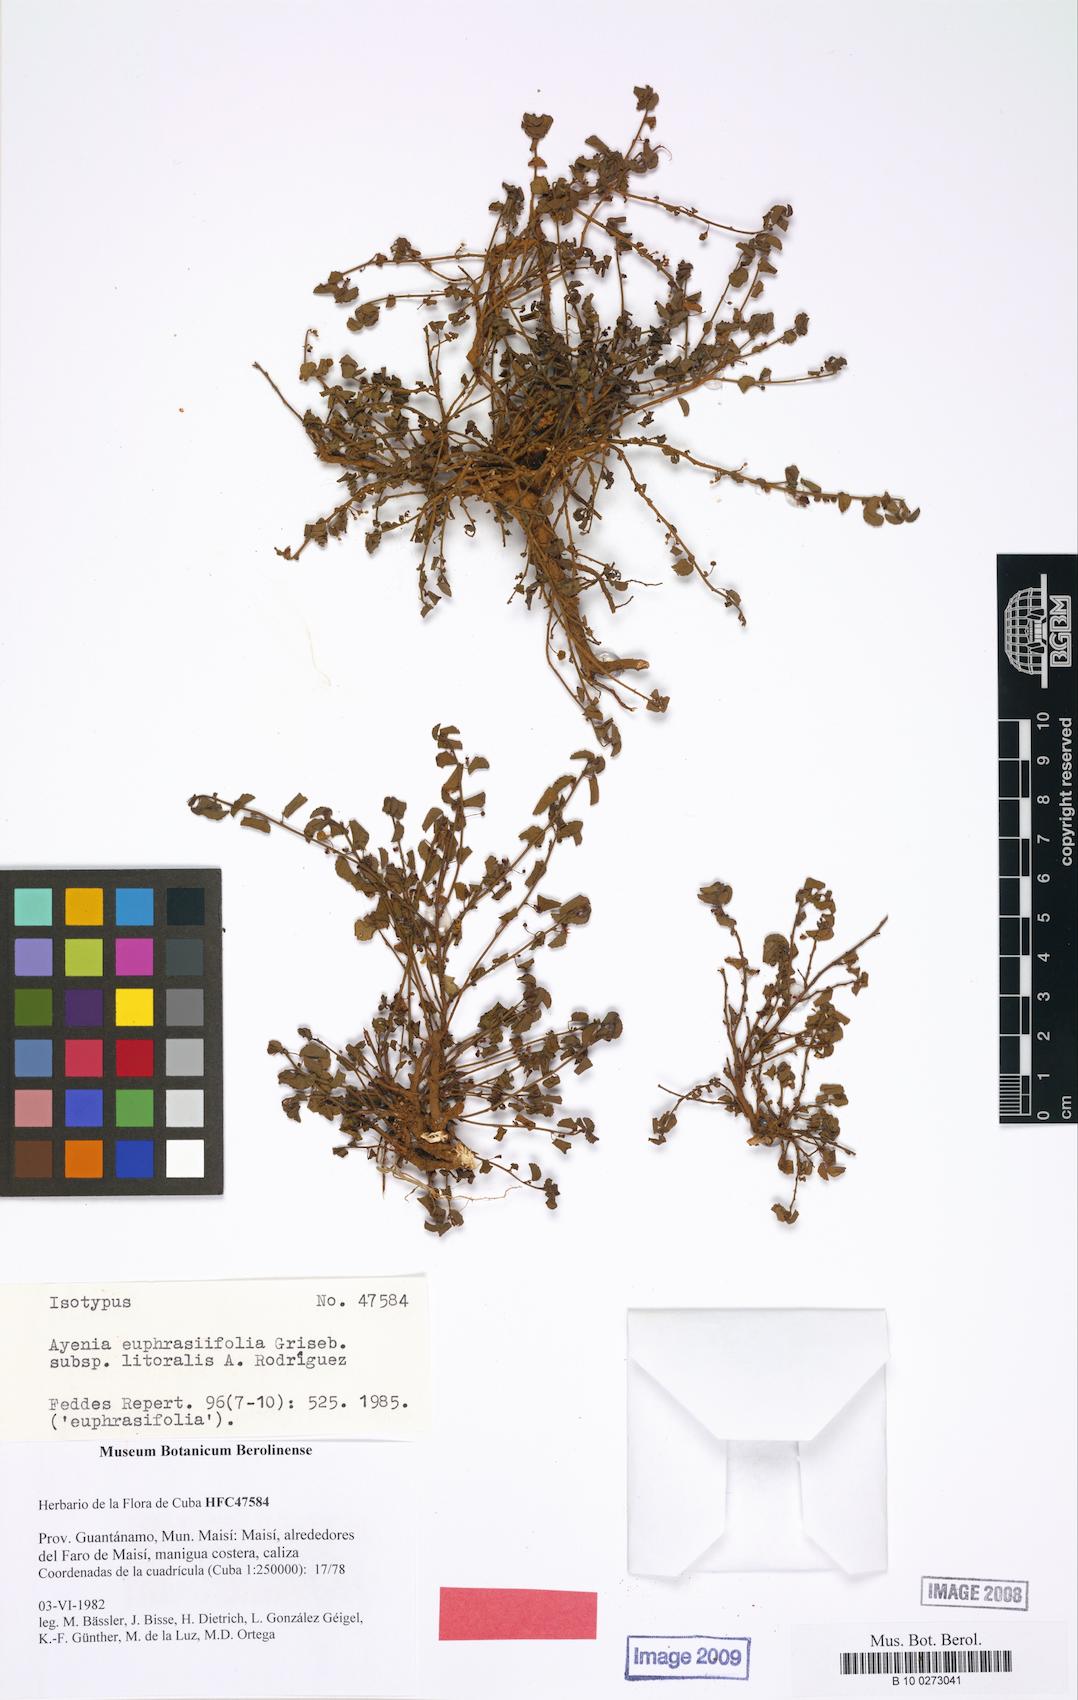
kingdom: Plantae
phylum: Tracheophyta
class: Magnoliopsida
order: Malvales
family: Malvaceae
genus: Ayenia
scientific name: Ayenia euphrasiifolia
